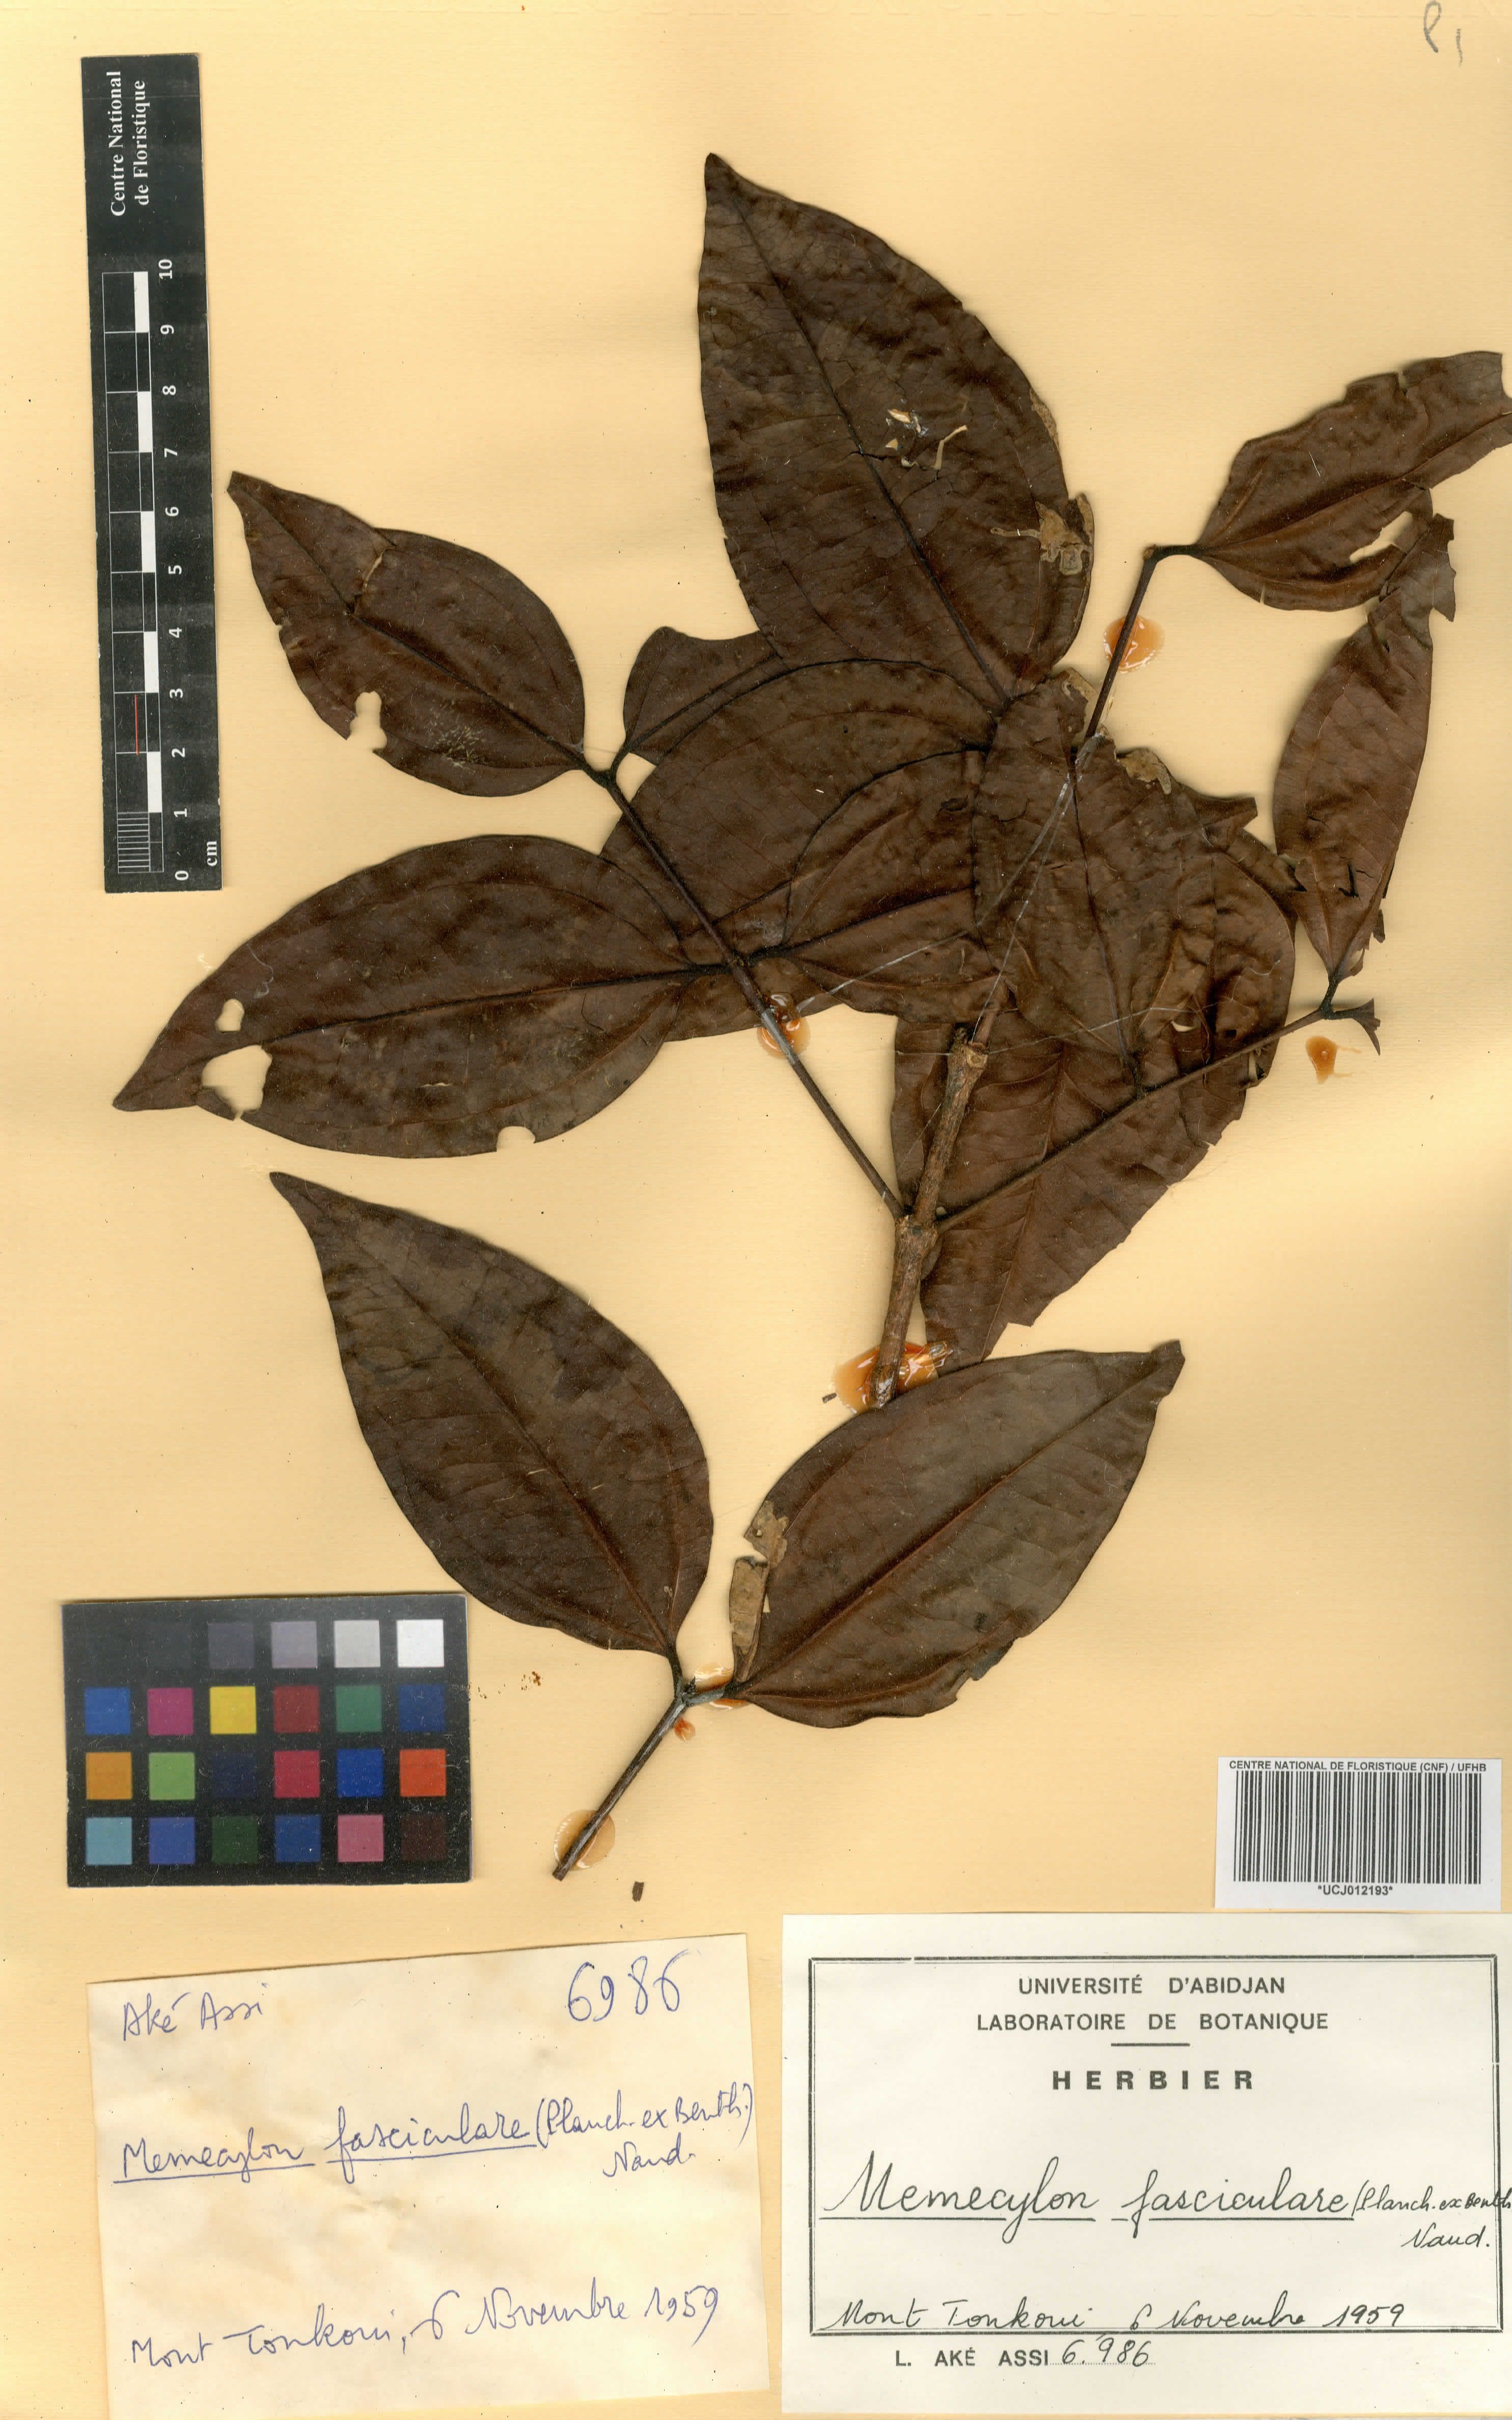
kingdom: Plantae
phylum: Tracheophyta
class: Magnoliopsida
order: Myrtales
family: Melastomataceae
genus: Warneckea
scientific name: Warneckea fascicularis
